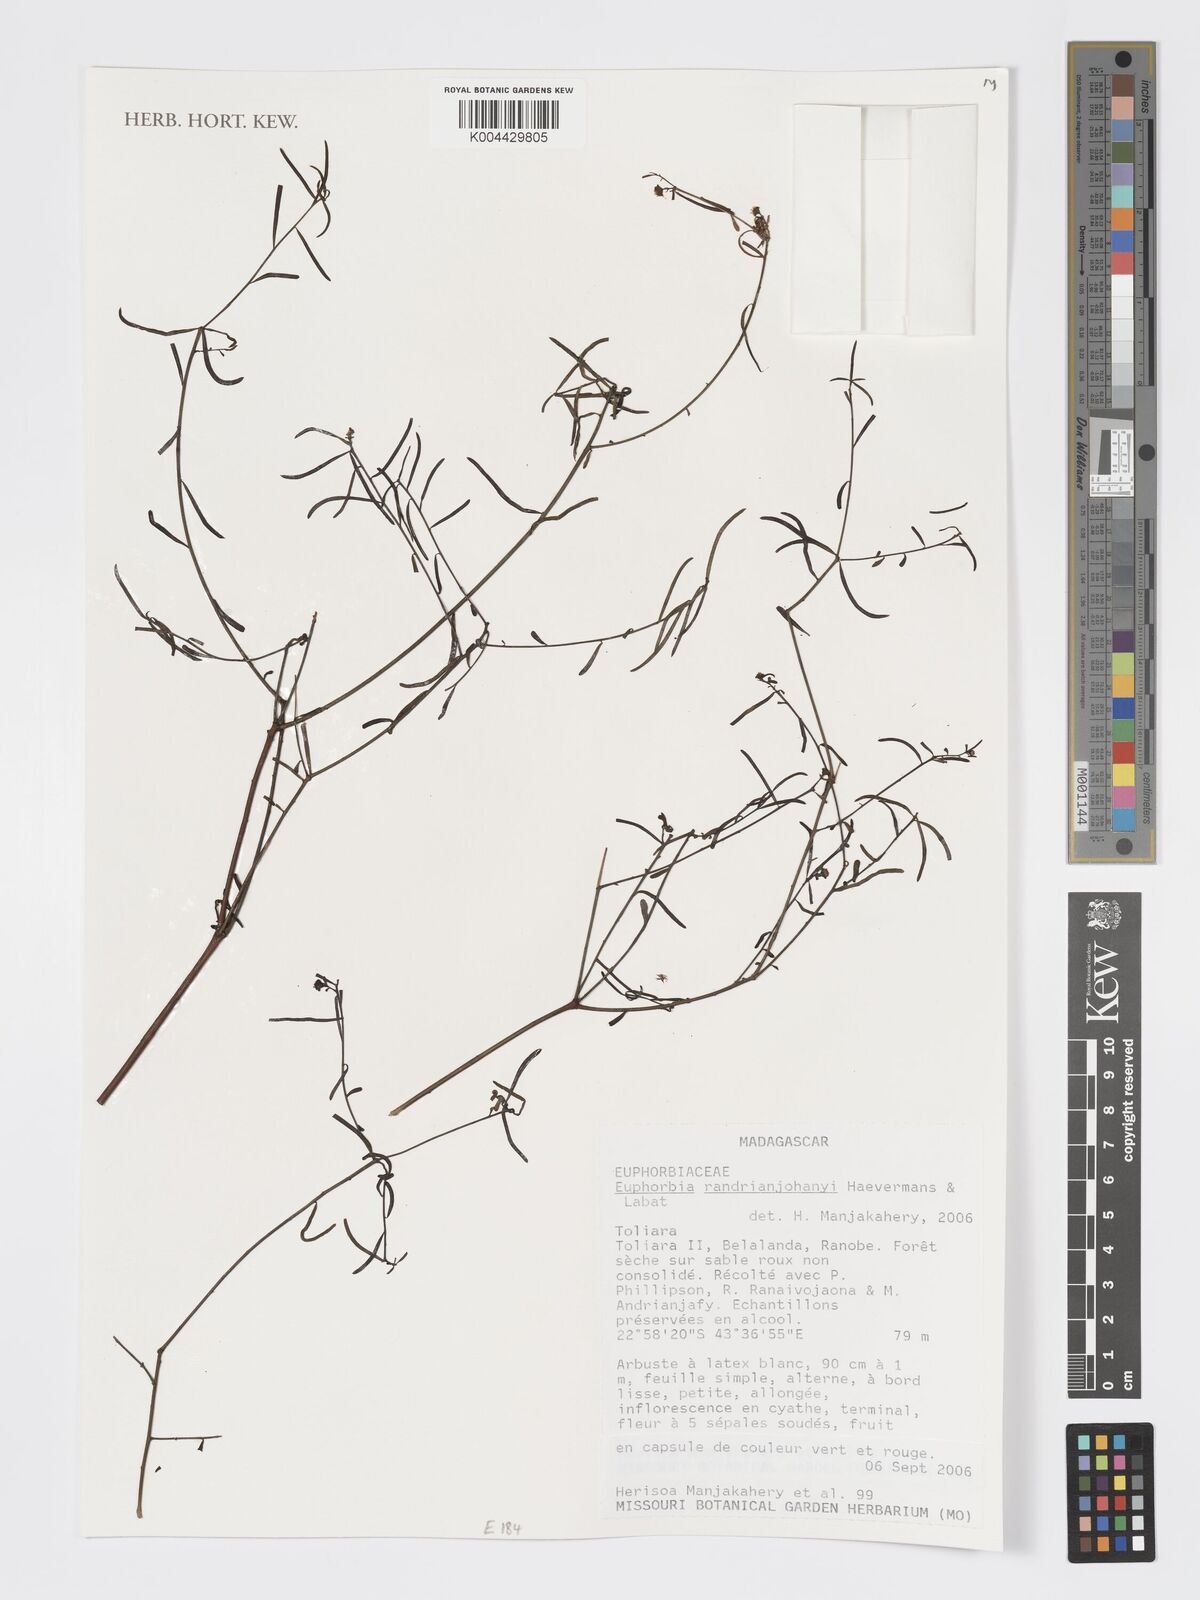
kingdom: Plantae
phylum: Tracheophyta
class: Magnoliopsida
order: Malpighiales
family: Euphorbiaceae
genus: Euphorbia
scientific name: Euphorbia randrianijohanyi
